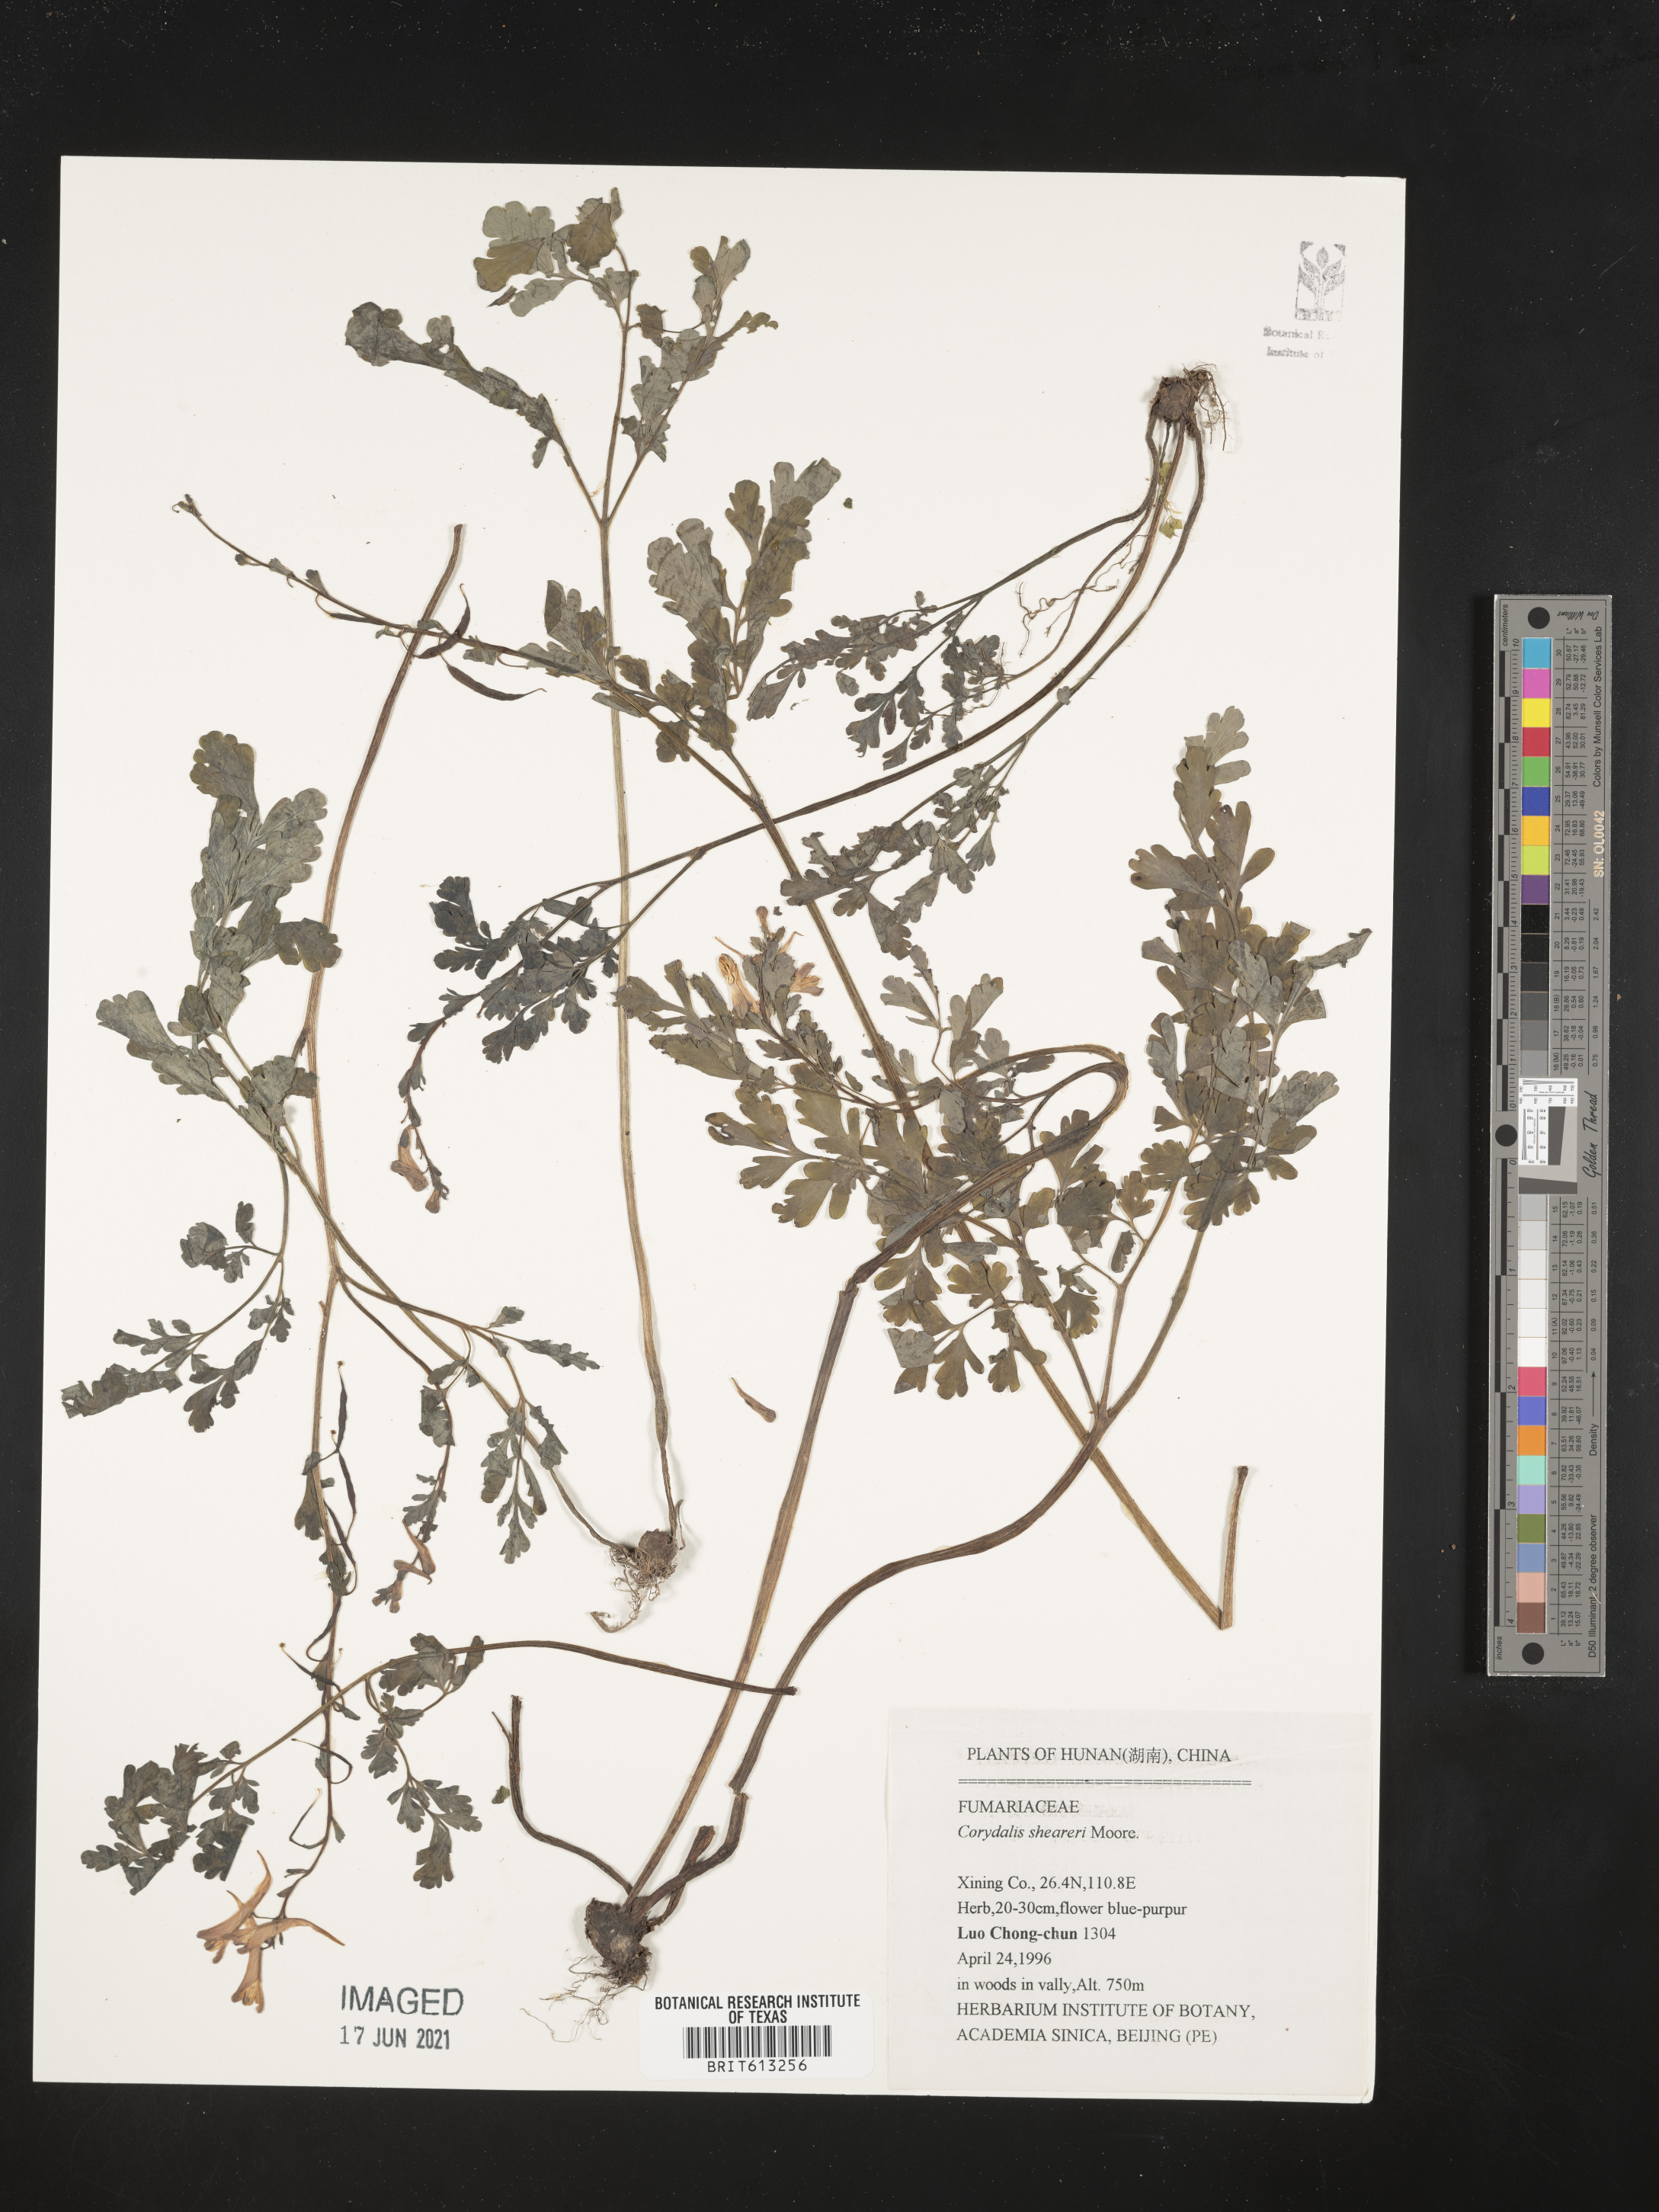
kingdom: Plantae
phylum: Tracheophyta
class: Magnoliopsida
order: Ranunculales
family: Papaveraceae
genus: Corydalis
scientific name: Corydalis sheareri
